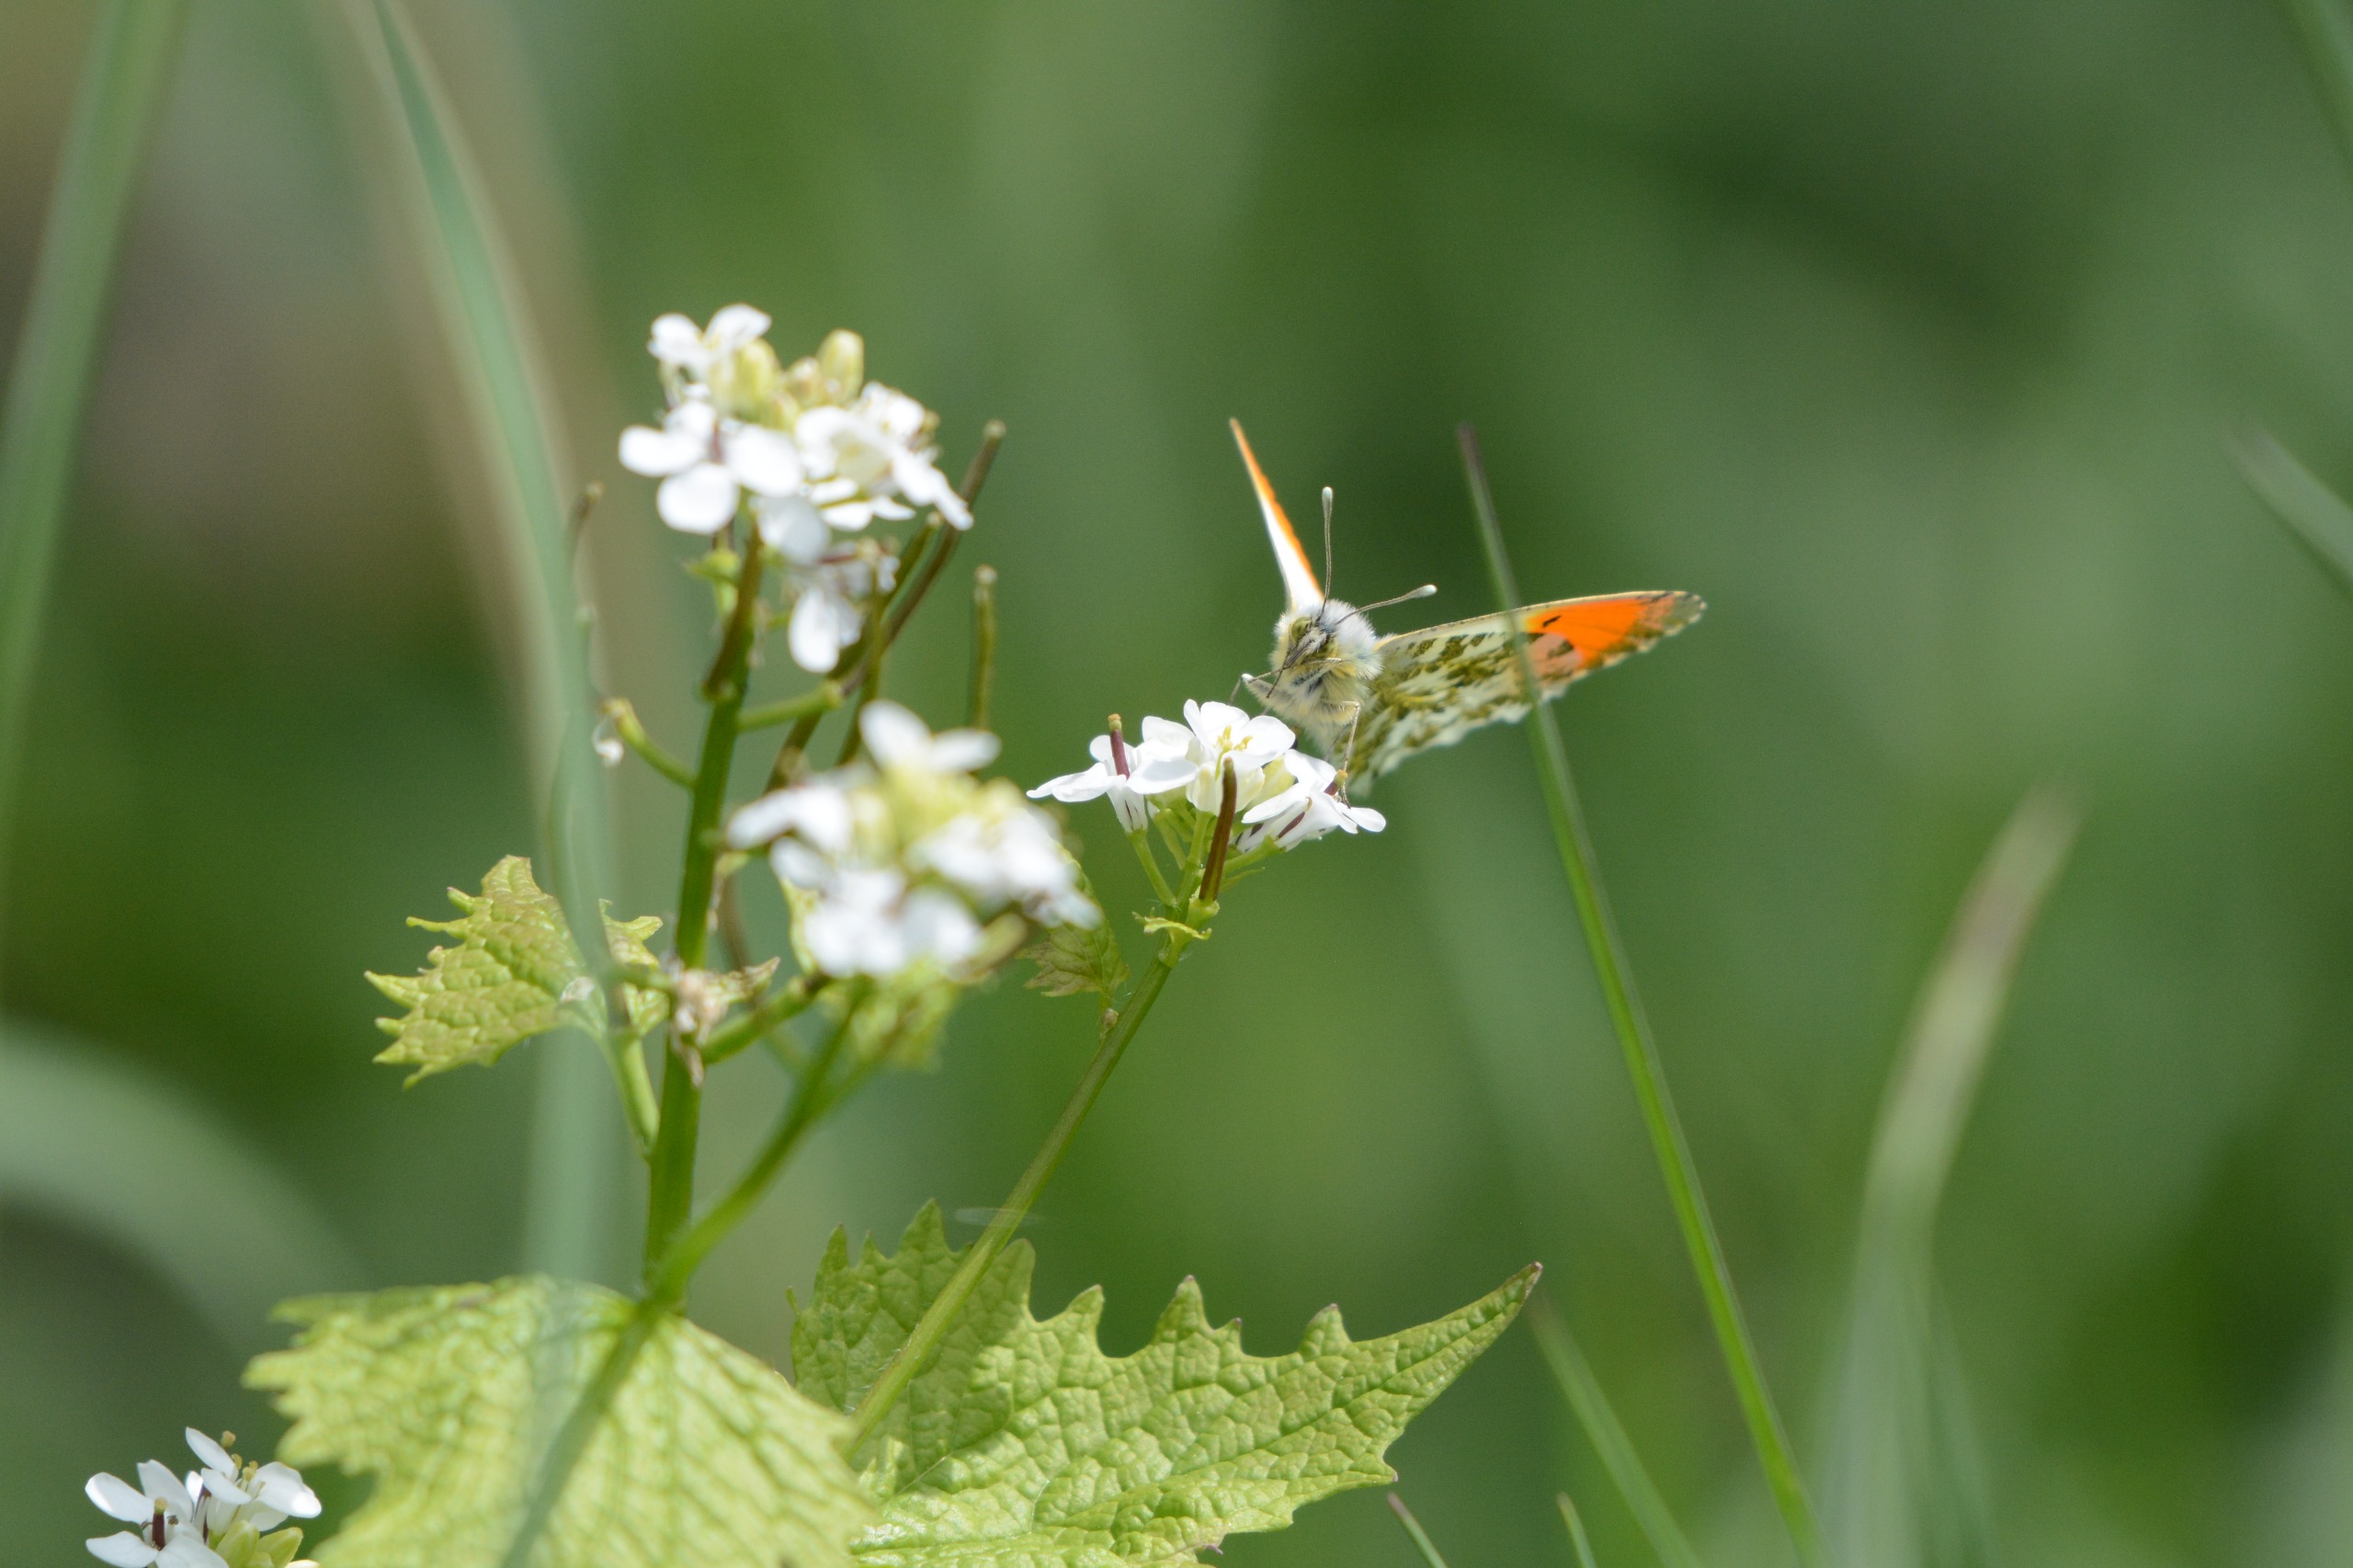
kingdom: Animalia
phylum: Arthropoda
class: Insecta
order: Lepidoptera
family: Pieridae
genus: Anthocharis
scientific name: Anthocharis cardamines
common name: Aurora
